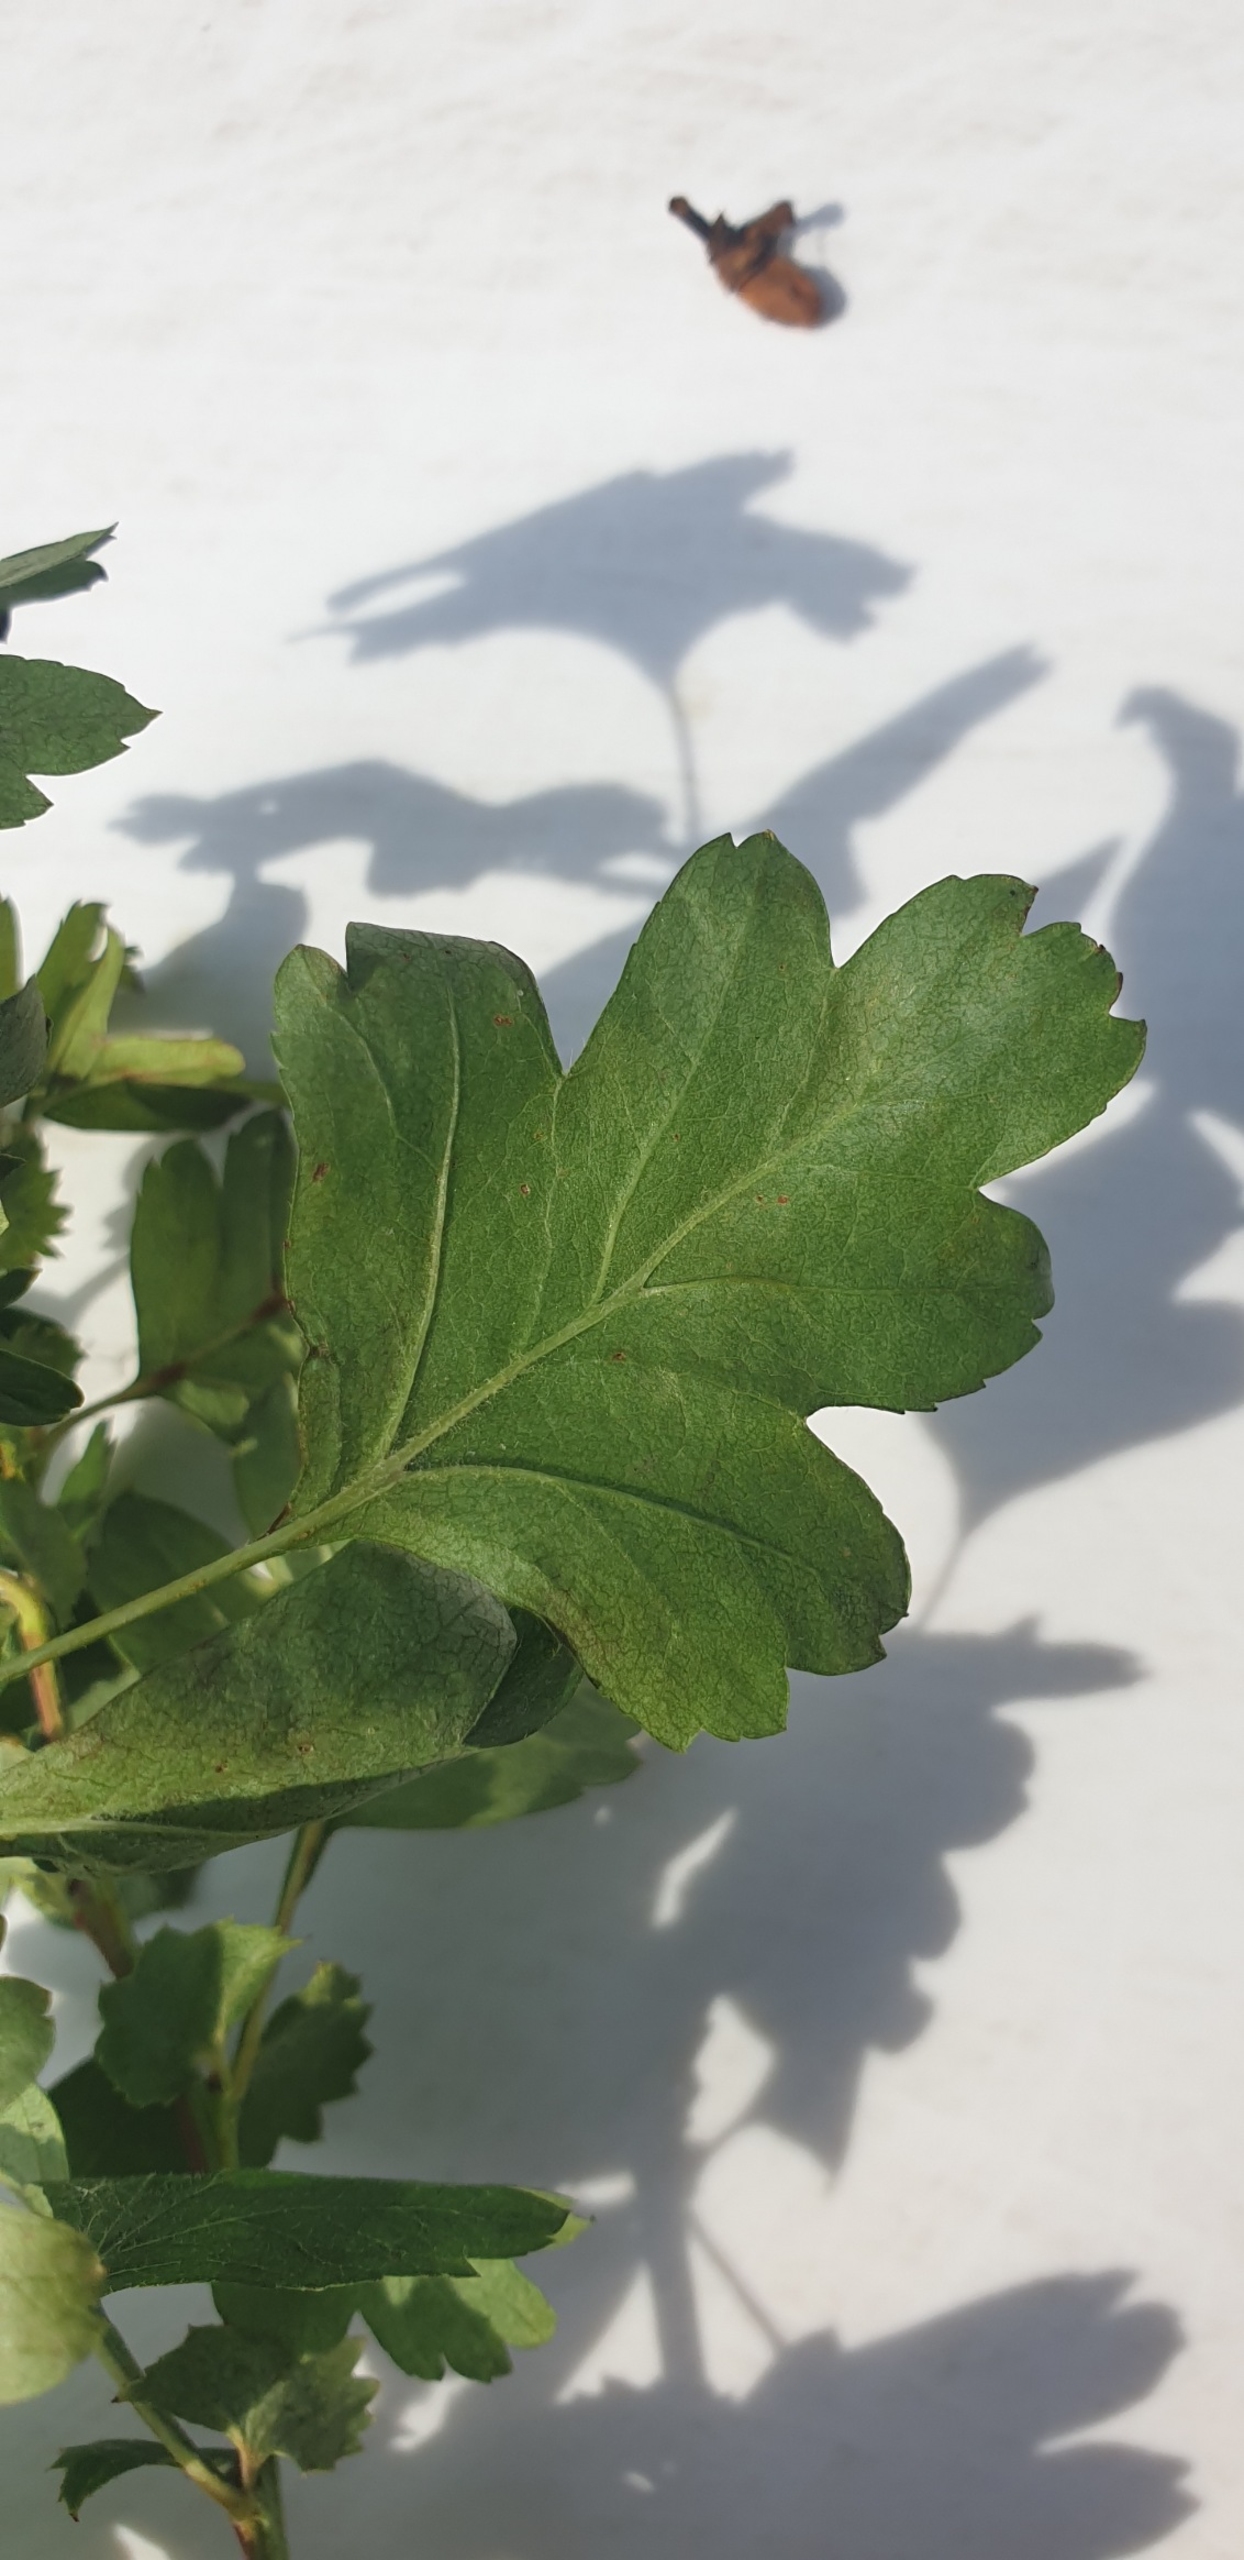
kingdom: Plantae
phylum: Tracheophyta
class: Magnoliopsida
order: Rosales
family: Rosaceae
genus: Crataegus
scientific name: Crataegus monogyna
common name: Engriflet hvidtjørn
